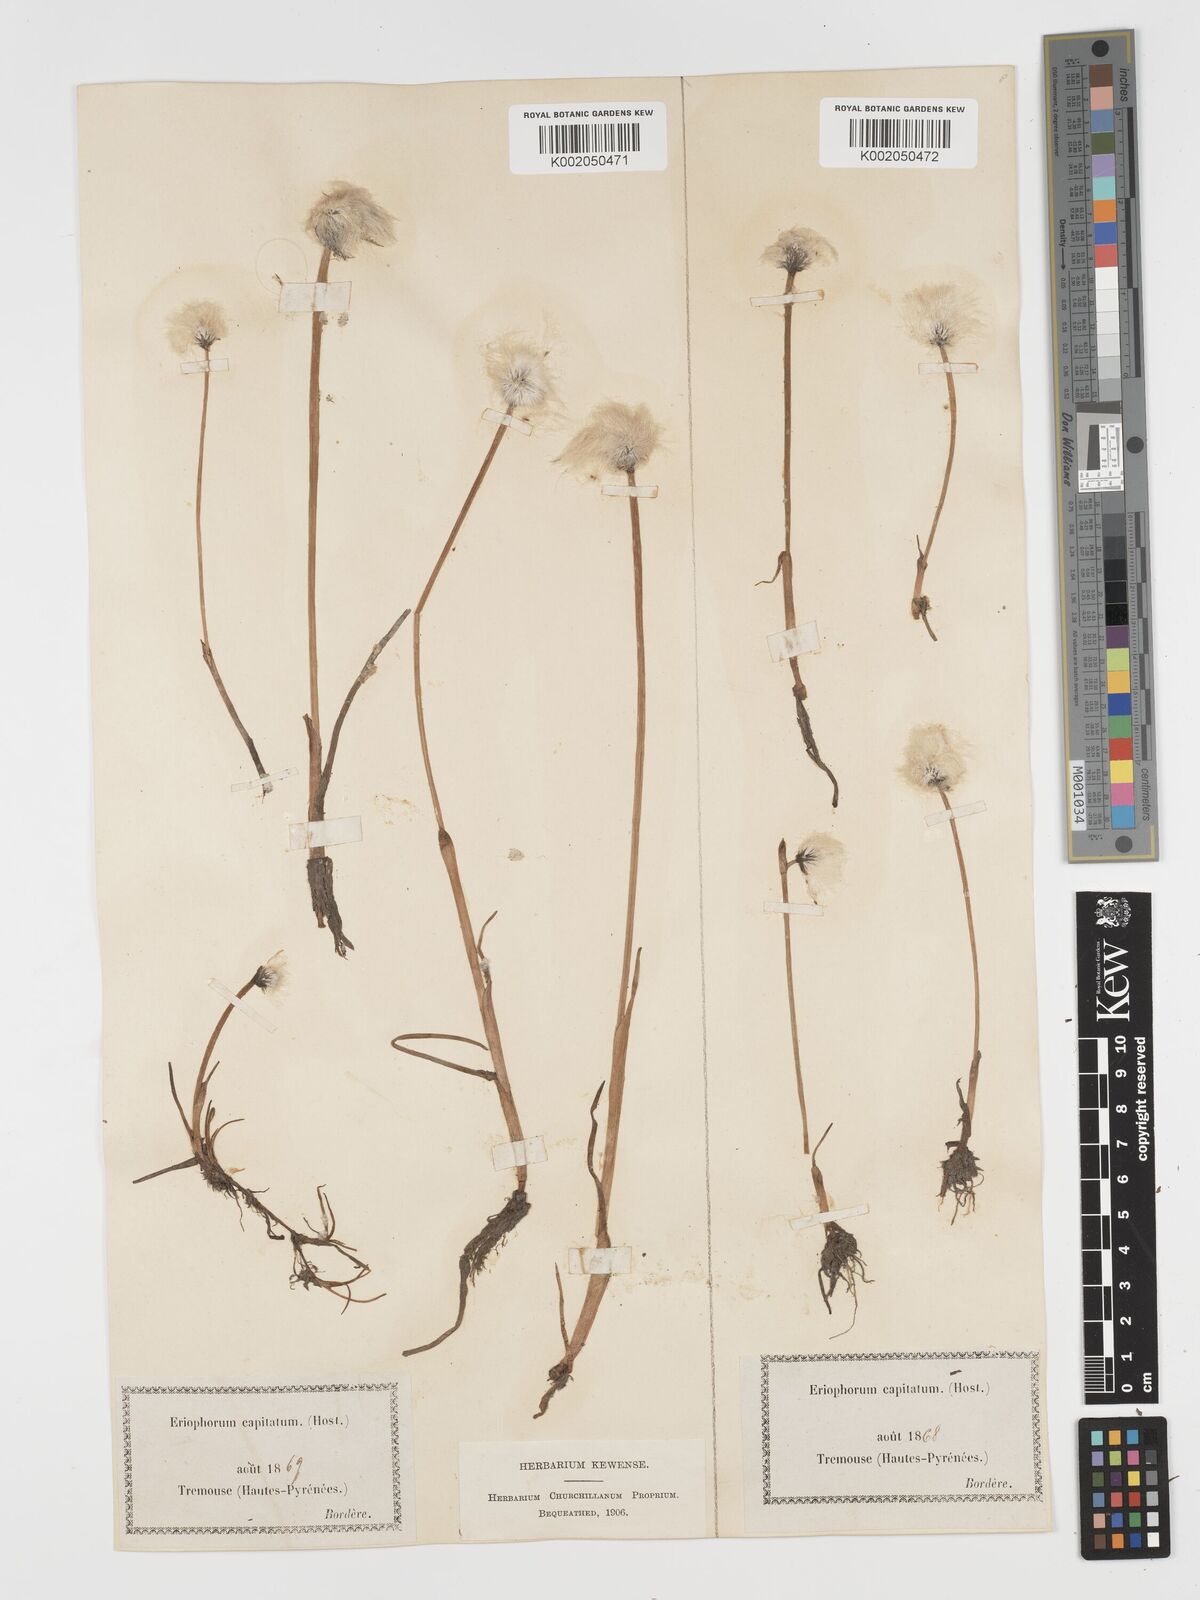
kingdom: Plantae
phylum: Tracheophyta
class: Liliopsida
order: Poales
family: Cyperaceae
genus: Eriophorum
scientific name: Eriophorum scheuchzeri
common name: Scheuchzer's cottongrass
